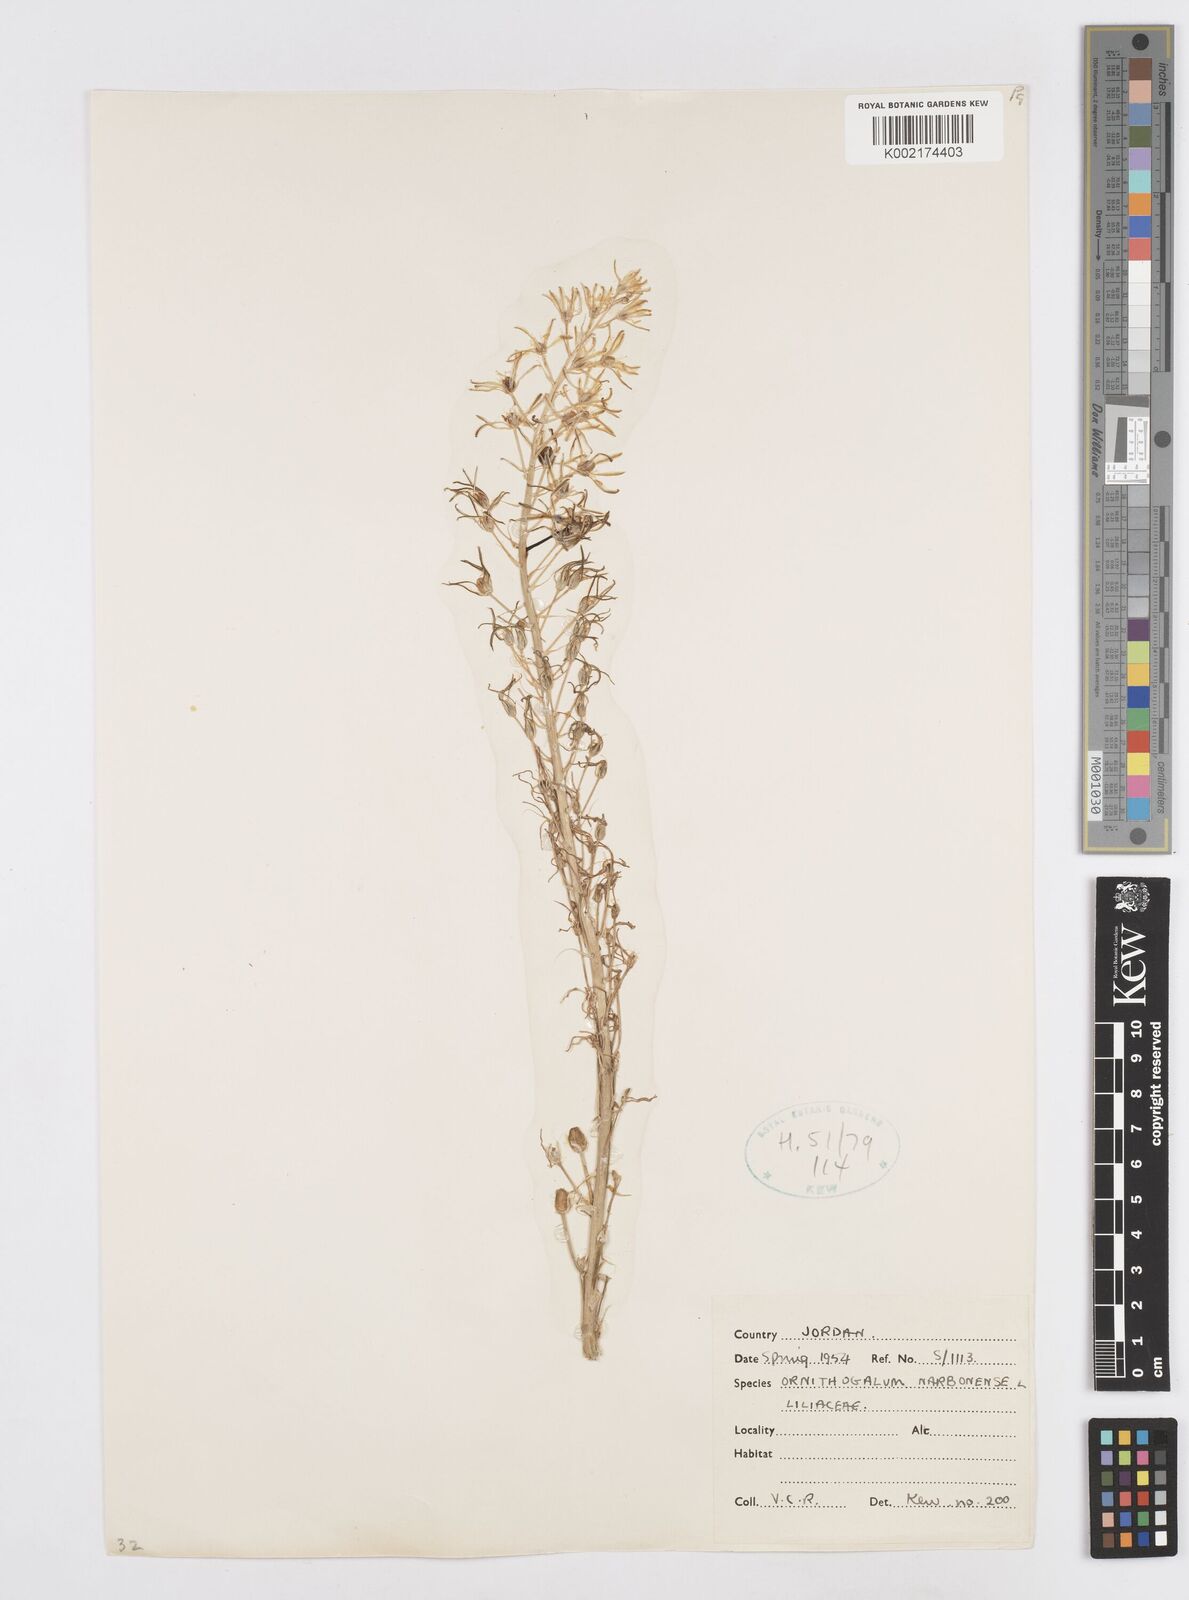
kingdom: Plantae
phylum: Tracheophyta
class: Liliopsida
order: Asparagales
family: Asparagaceae
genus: Ornithogalum
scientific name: Ornithogalum narbonense
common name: Bath-asparagus
